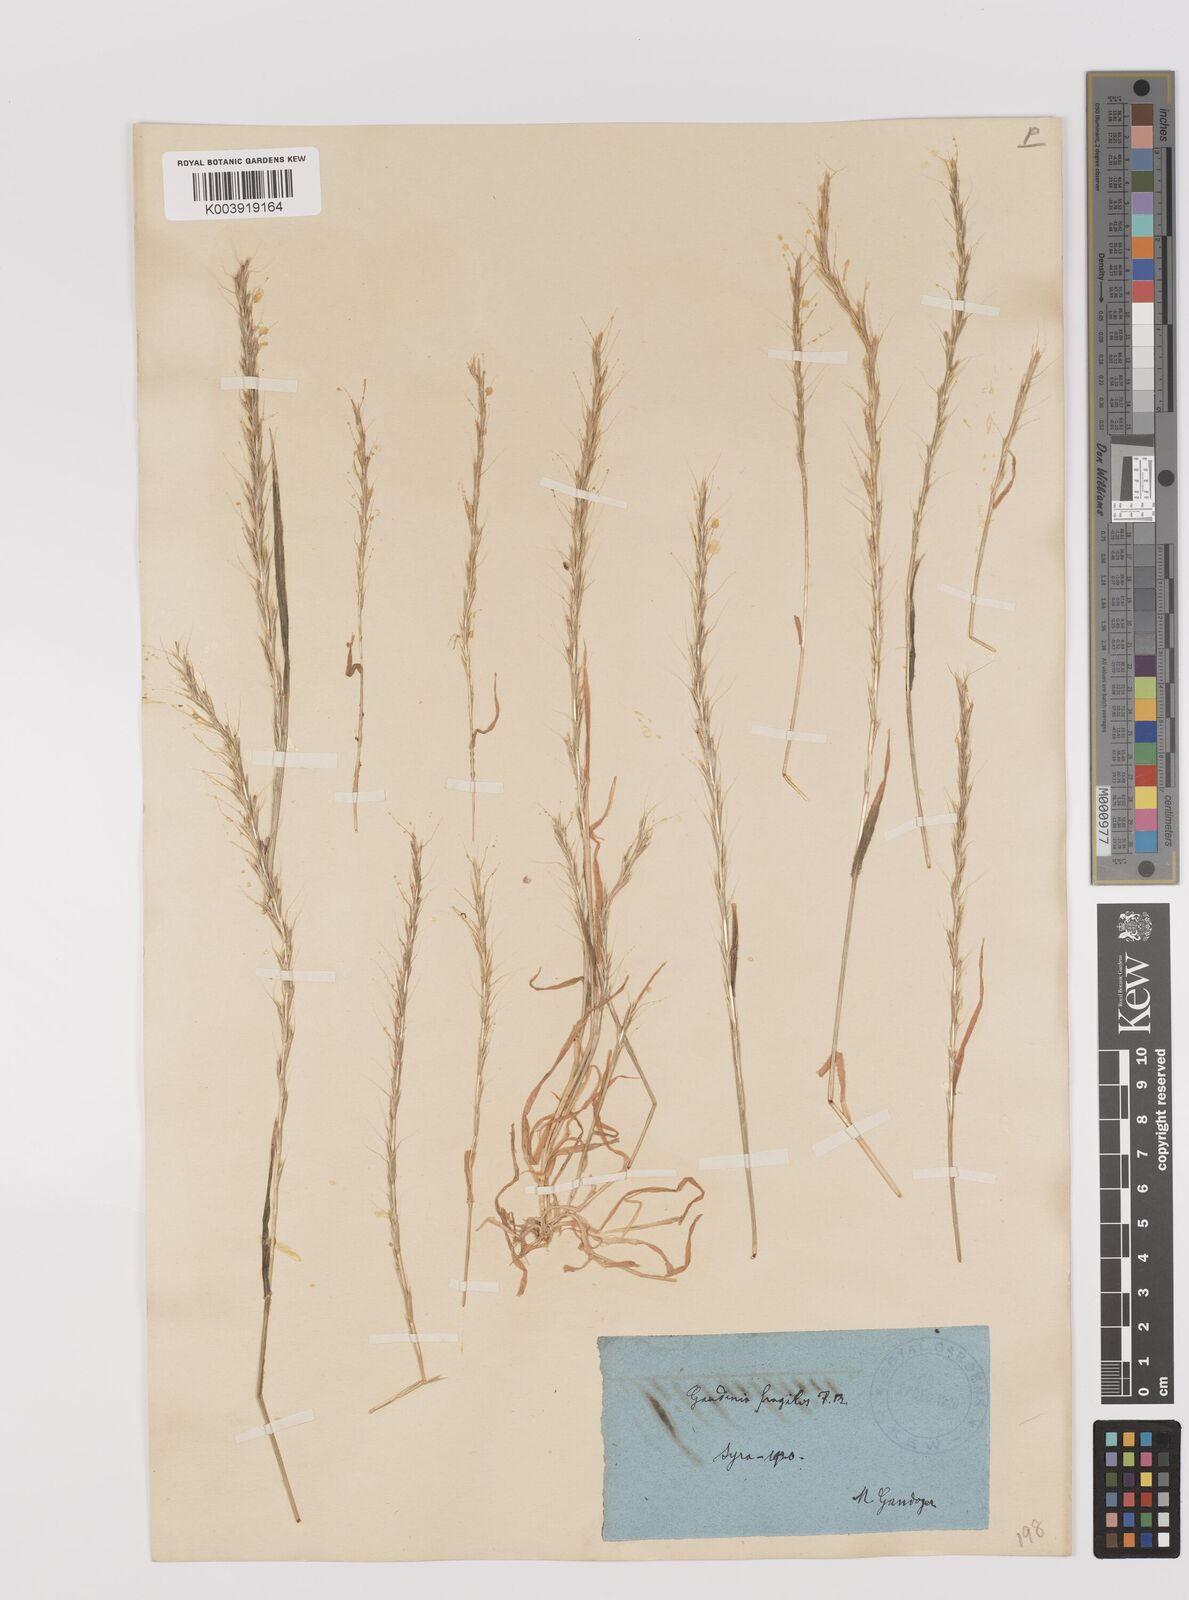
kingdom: Plantae
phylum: Tracheophyta
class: Liliopsida
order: Poales
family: Poaceae
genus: Gaudinia
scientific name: Gaudinia fragilis
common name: French oat-grass
